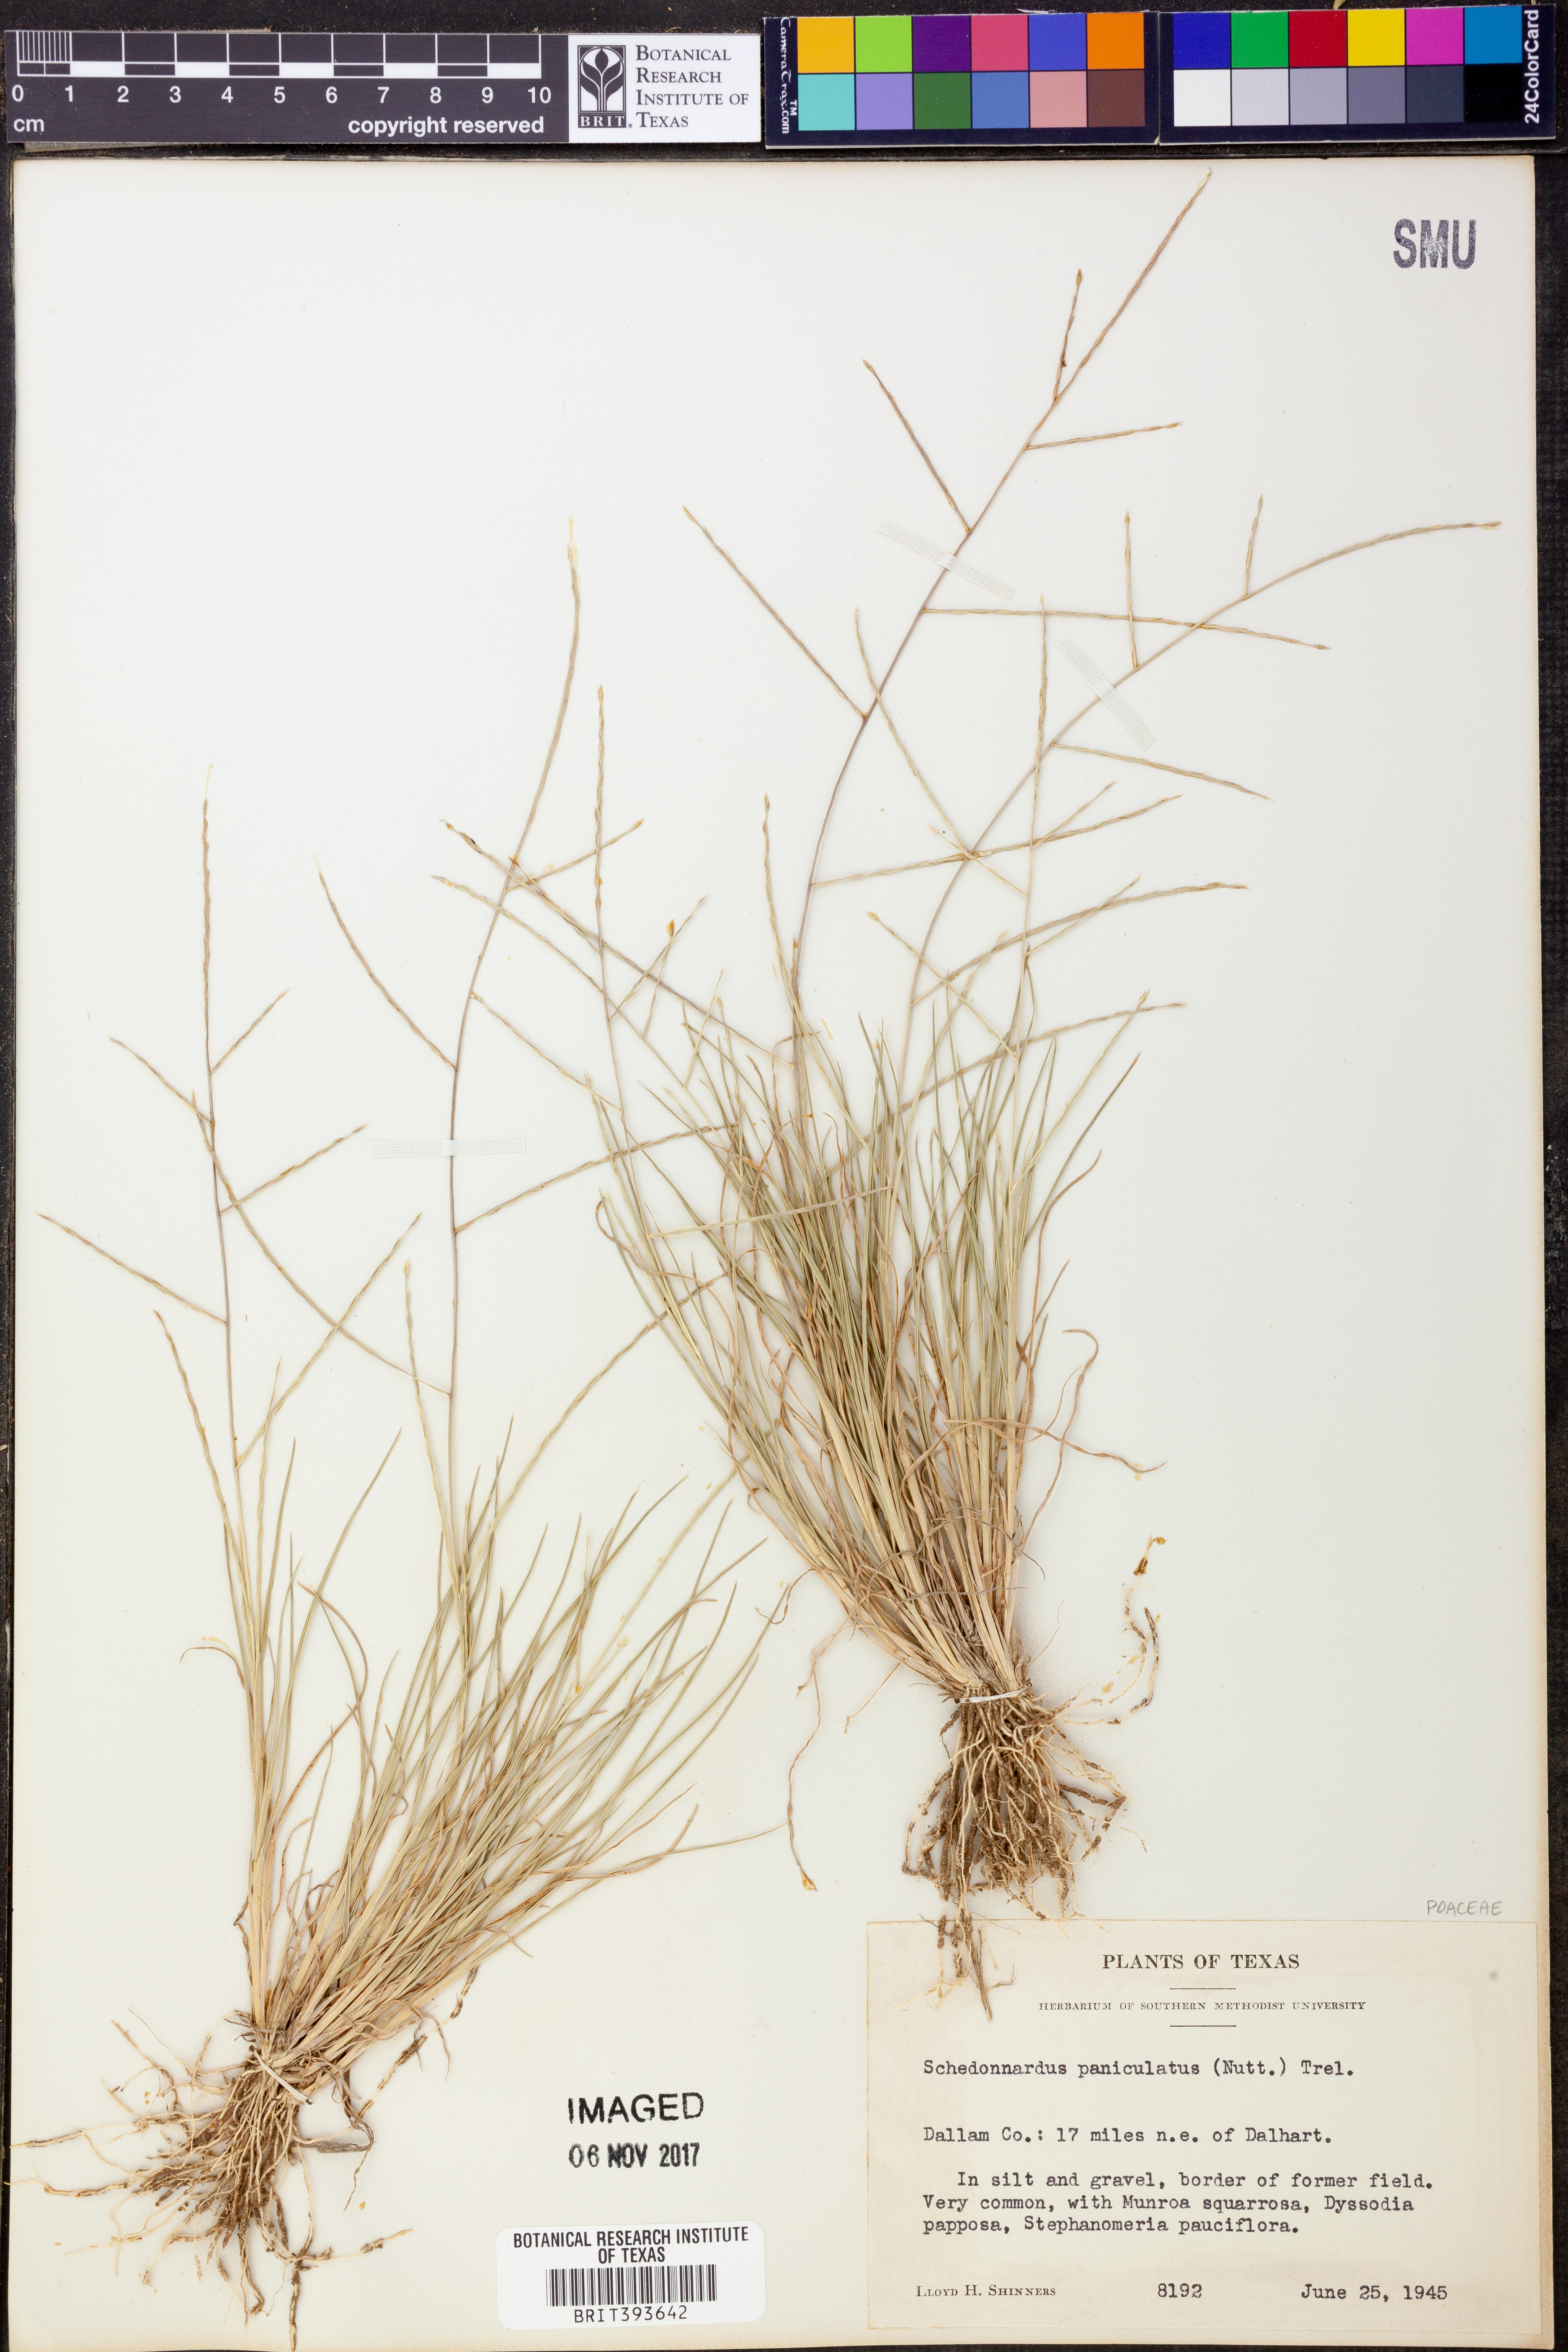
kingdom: Plantae
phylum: Tracheophyta
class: Liliopsida
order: Poales
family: Poaceae
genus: Muhlenbergia
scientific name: Muhlenbergia paniculata
